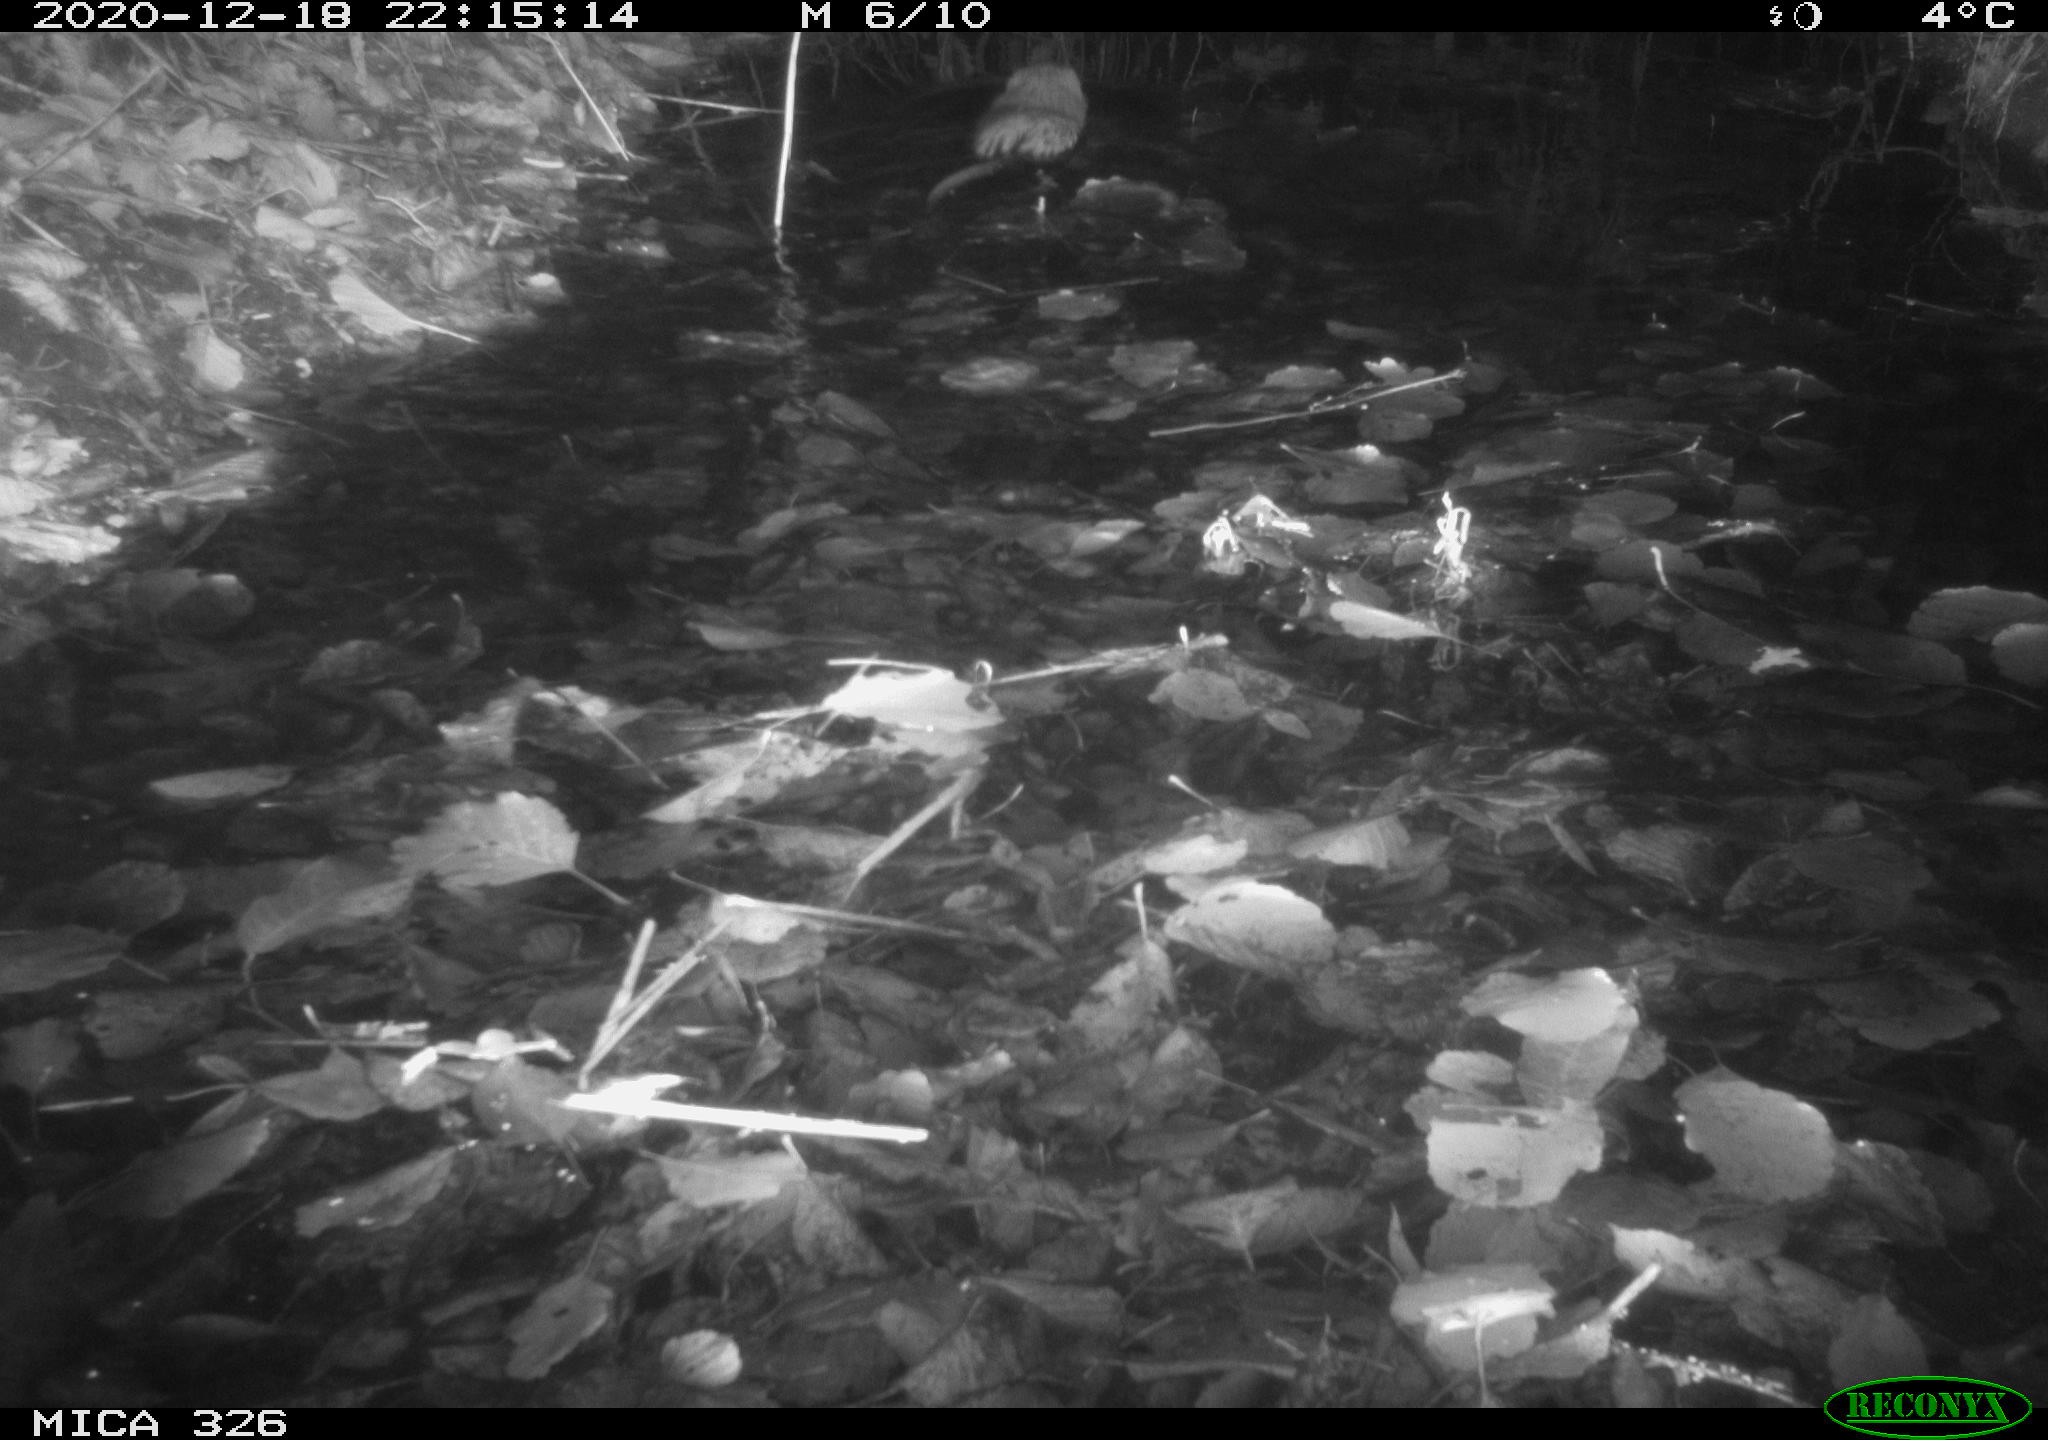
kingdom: Animalia
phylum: Chordata
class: Mammalia
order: Rodentia
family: Cricetidae
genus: Ondatra
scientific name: Ondatra zibethicus
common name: Muskrat
